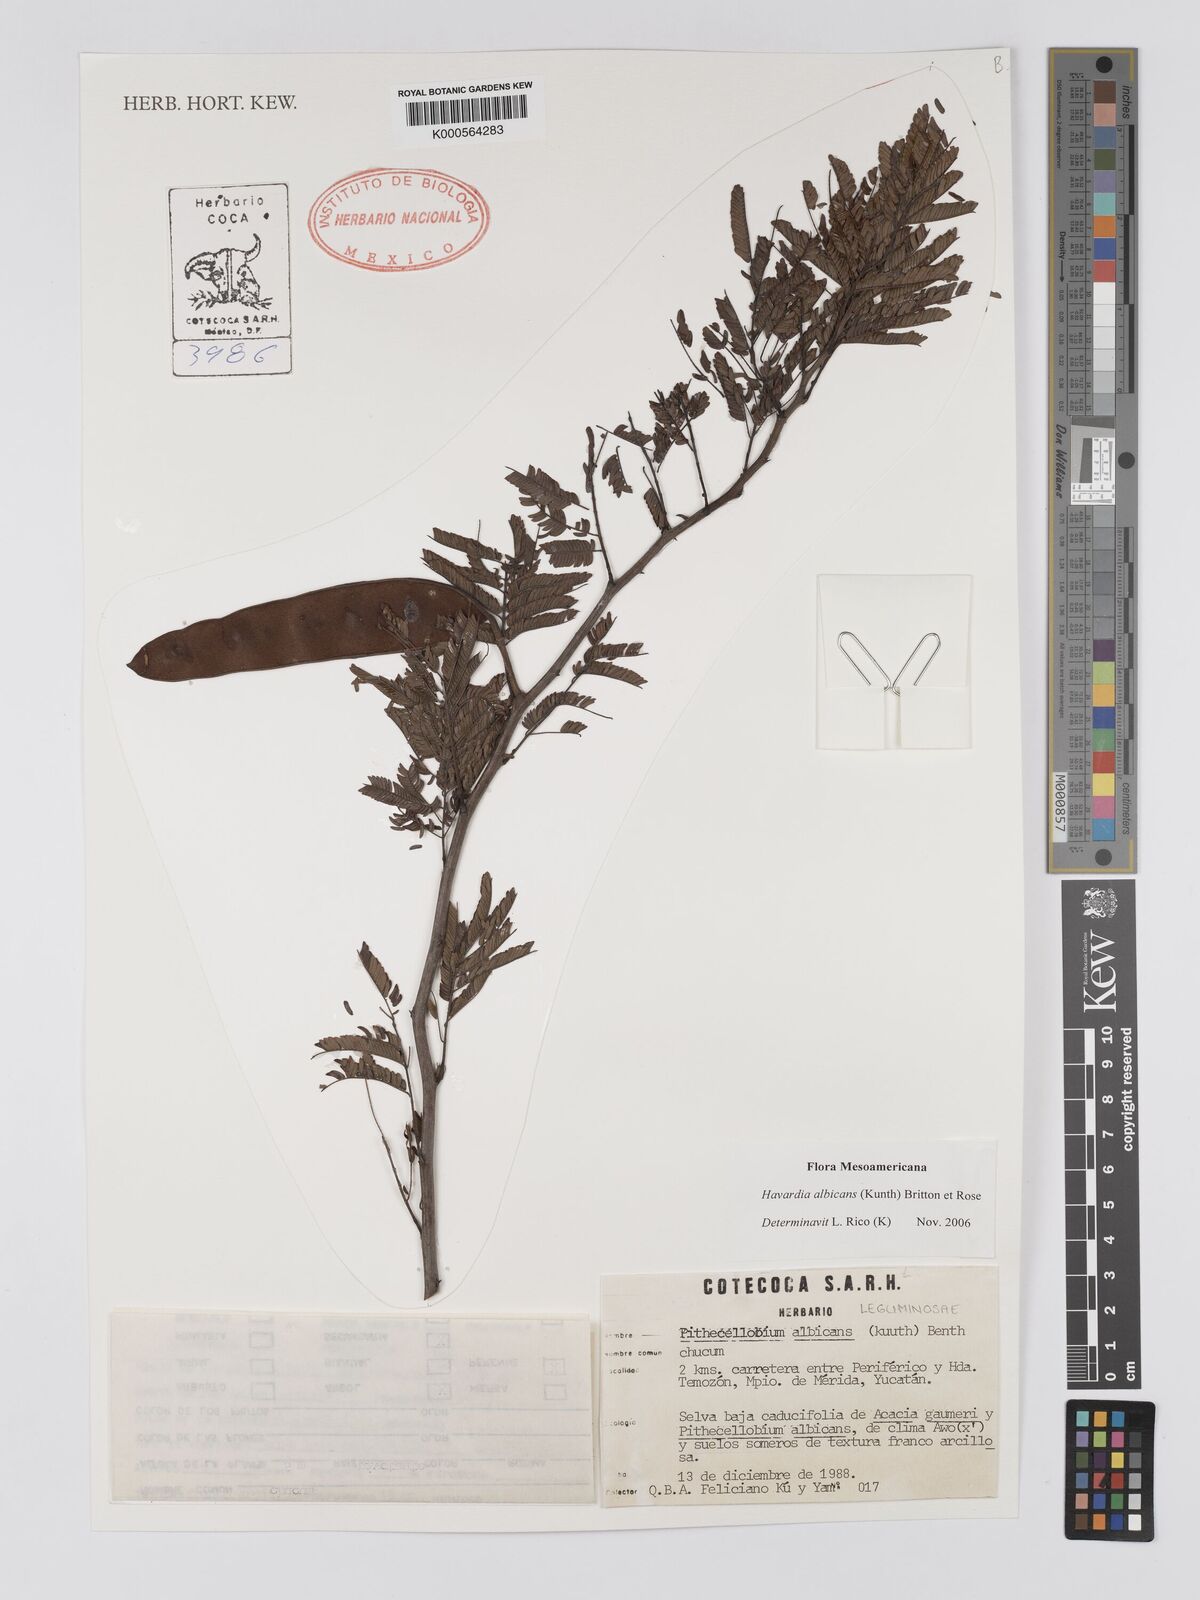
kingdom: Plantae
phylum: Tracheophyta
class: Magnoliopsida
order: Fabales
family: Fabaceae
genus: Havardia
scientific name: Havardia albicans
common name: Huisache
